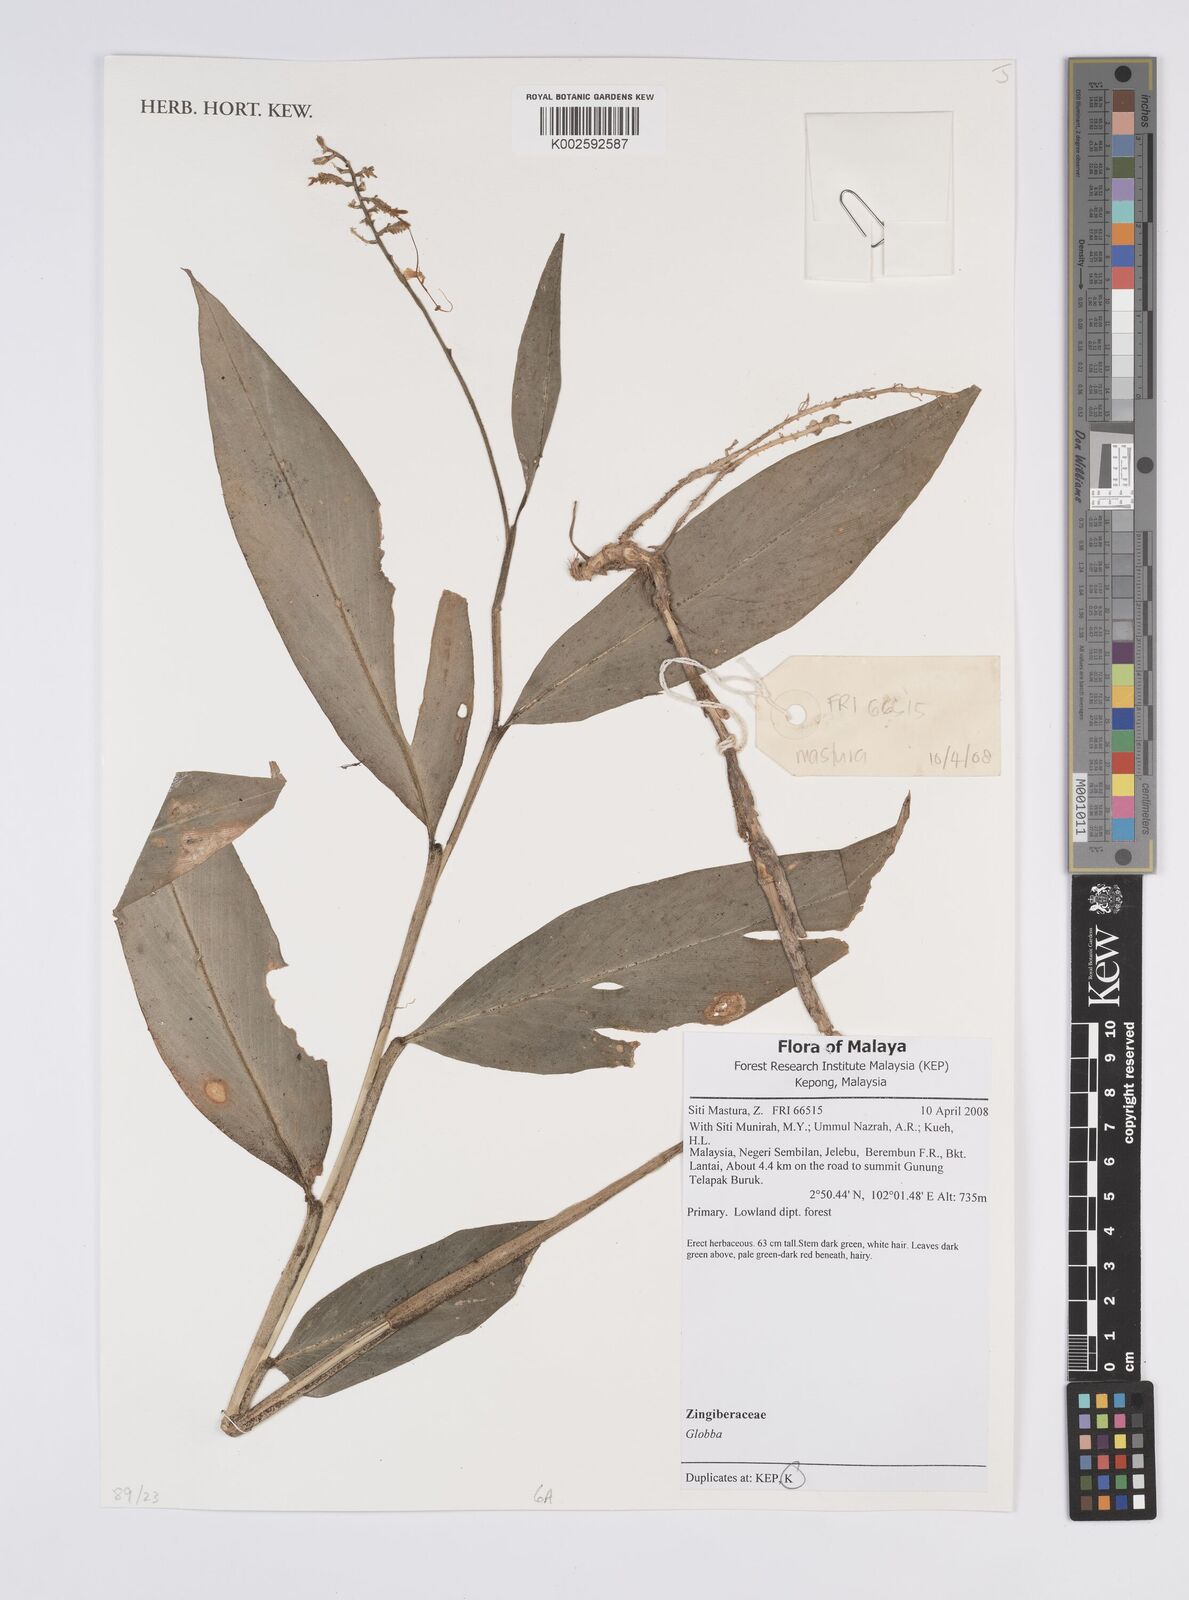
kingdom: Plantae
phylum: Tracheophyta
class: Liliopsida
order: Zingiberales
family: Zingiberaceae
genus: Globba
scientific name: Globba
